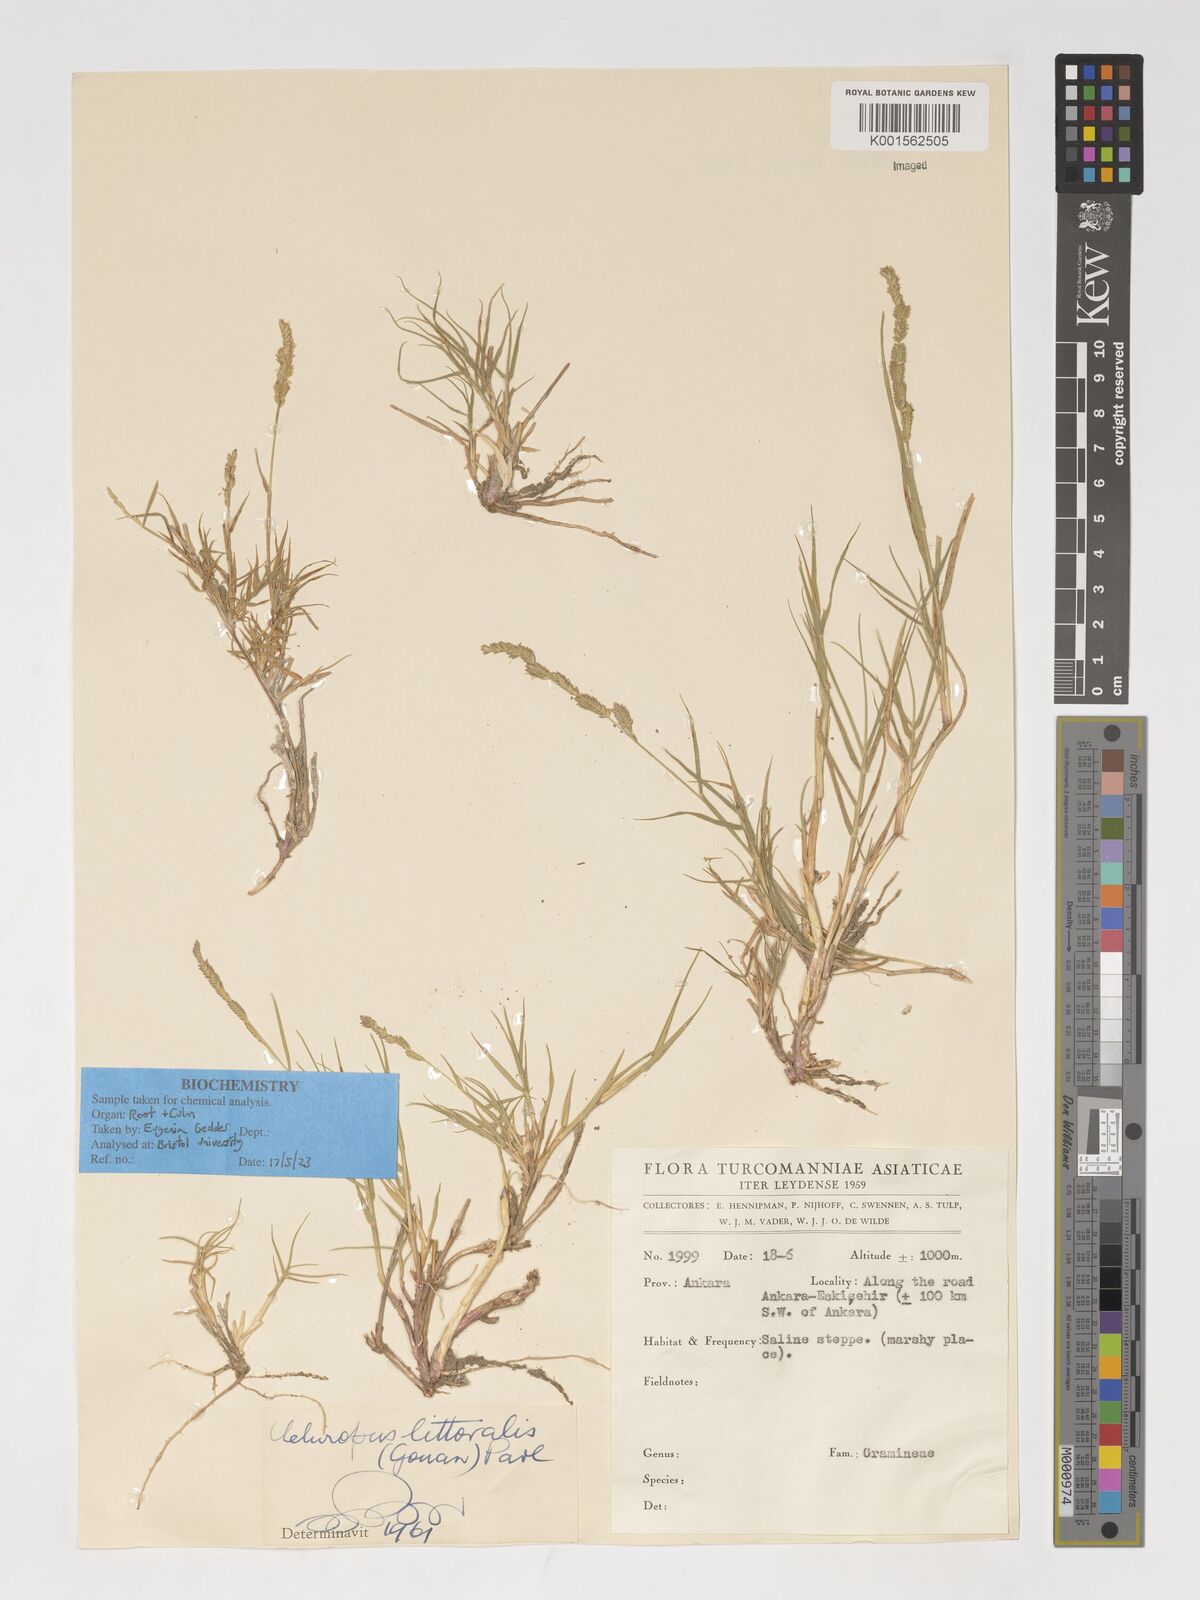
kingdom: Plantae
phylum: Tracheophyta
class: Liliopsida
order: Poales
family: Poaceae
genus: Aeluropus
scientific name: Aeluropus littoralis
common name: Indian walnut
